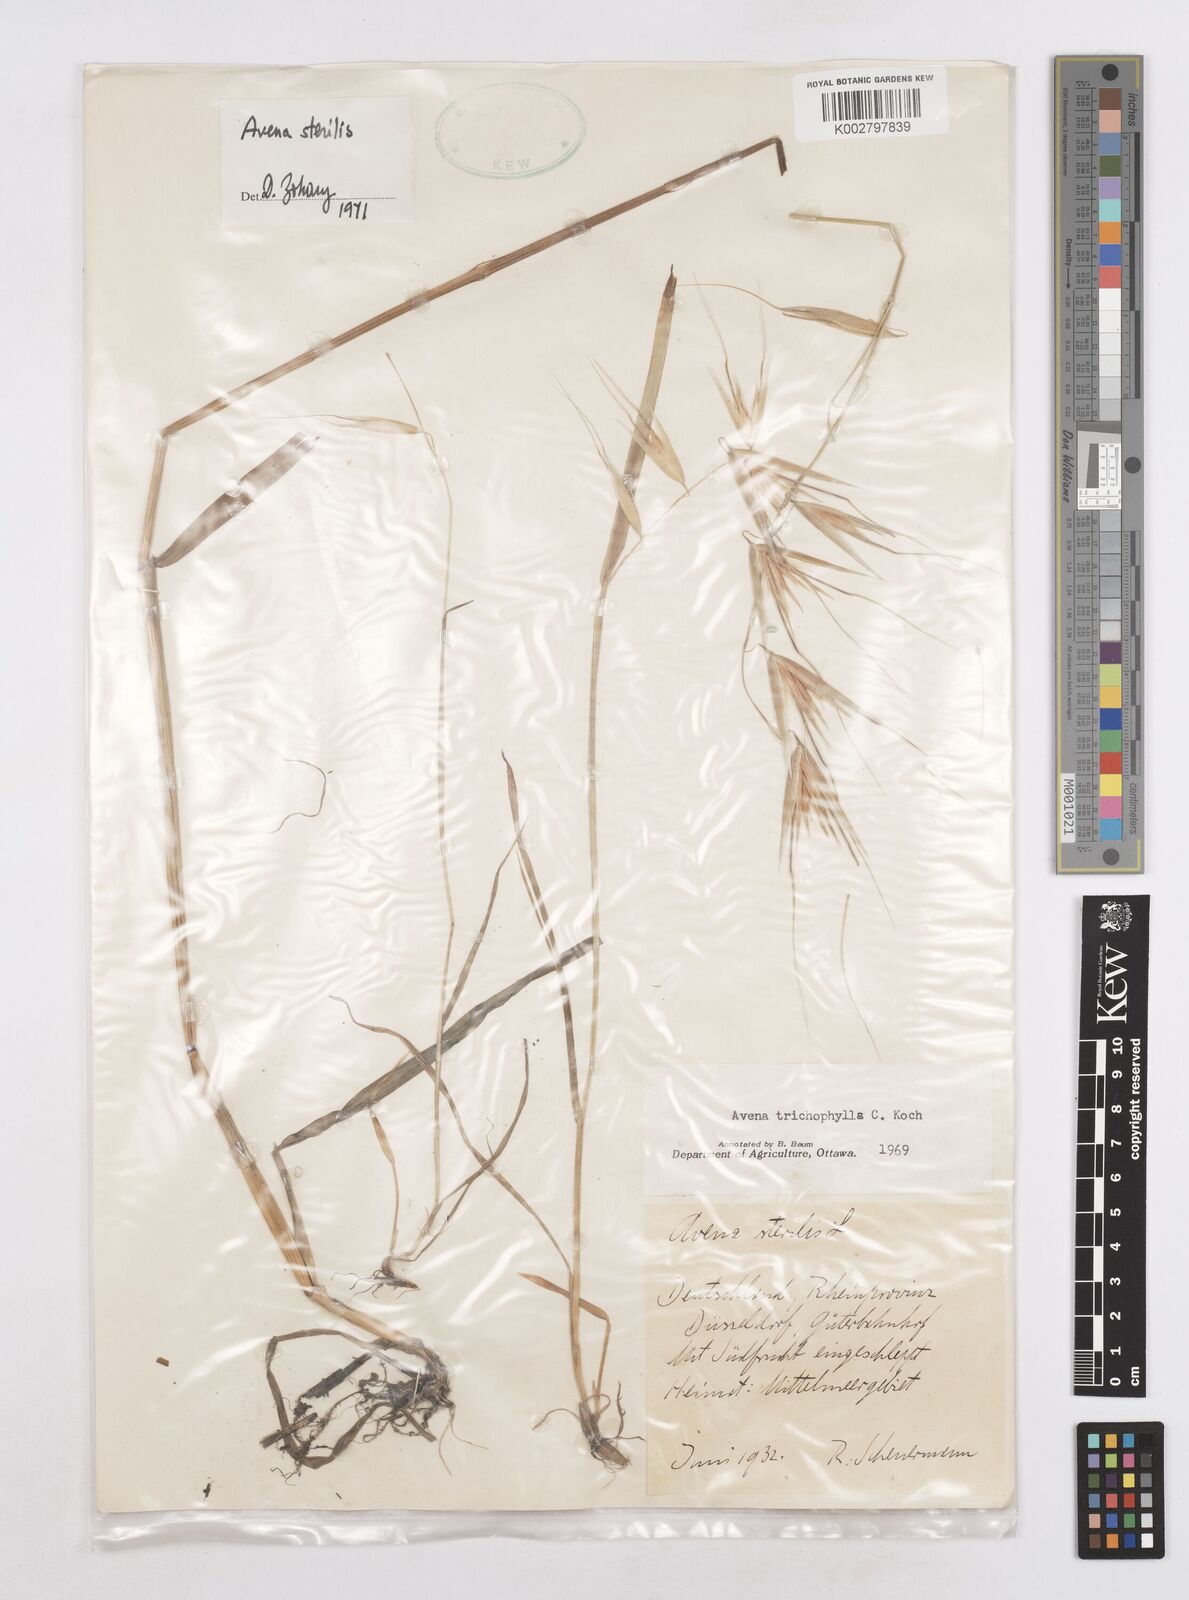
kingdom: Plantae
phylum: Tracheophyta
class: Liliopsida
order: Poales
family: Poaceae
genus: Avena
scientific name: Avena sterilis
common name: Animated oat
